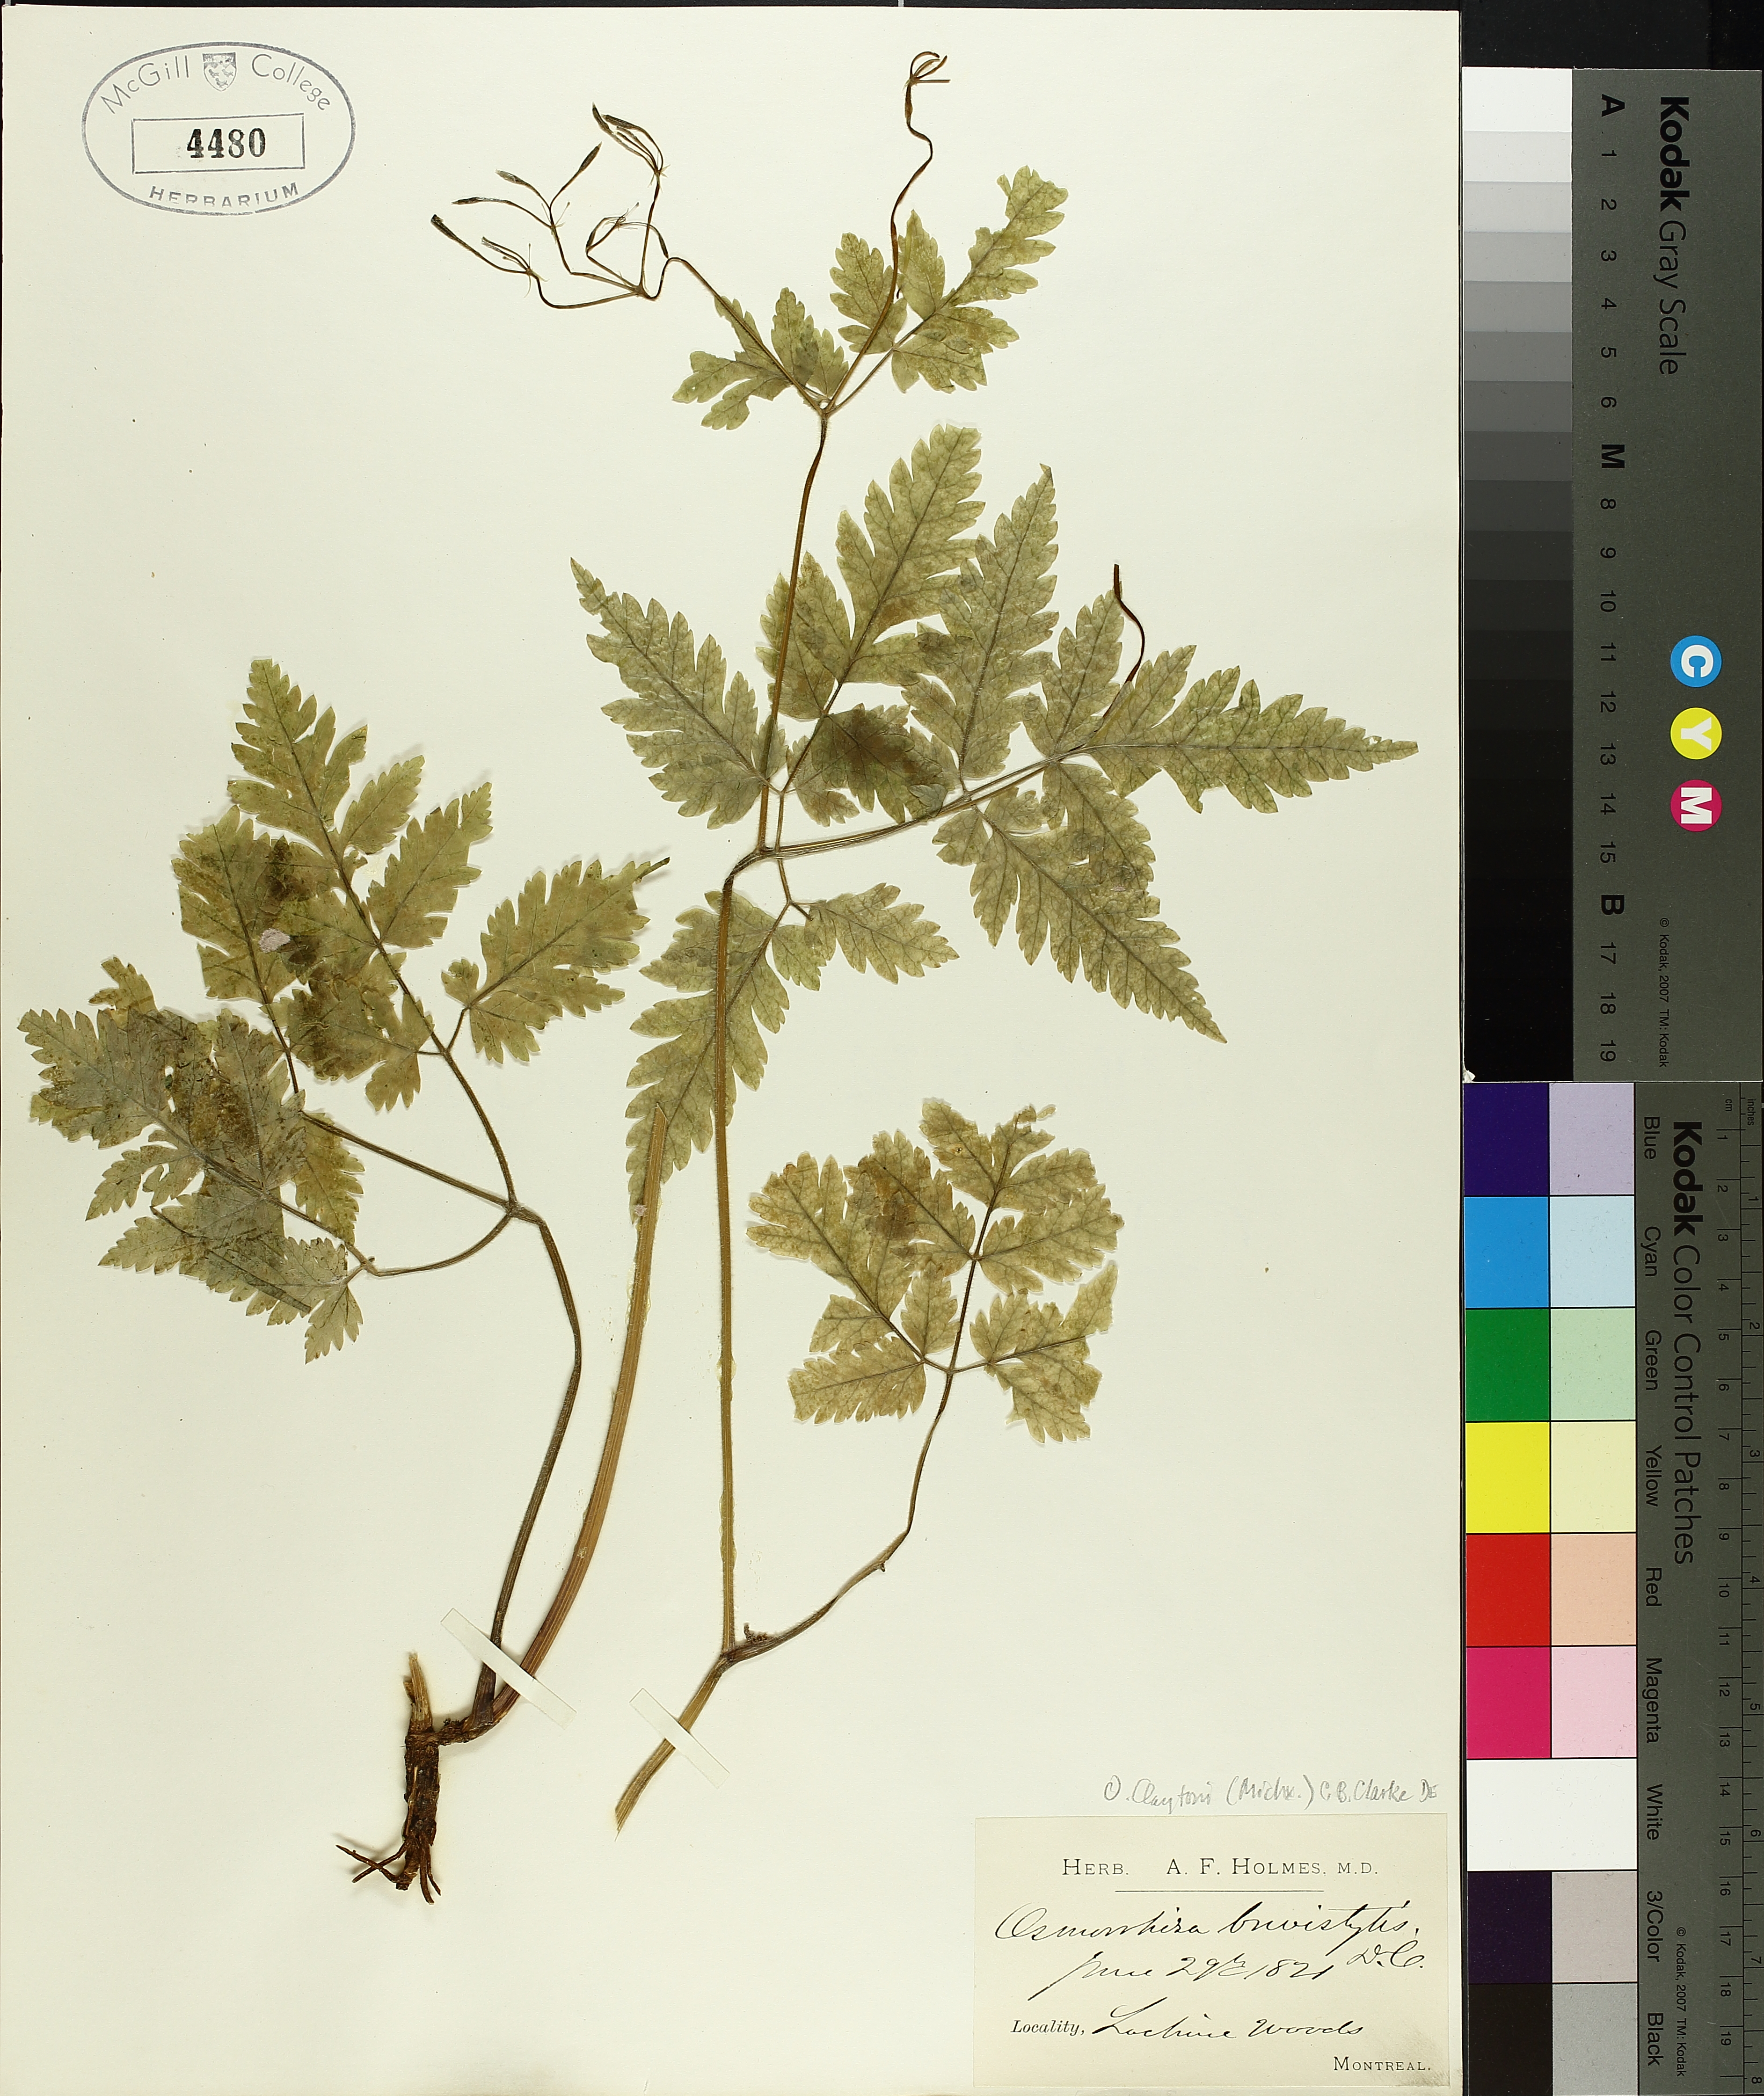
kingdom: Plantae
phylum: Tracheophyta
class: Magnoliopsida
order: Apiales
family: Apiaceae
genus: Osmorhiza
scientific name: Osmorhiza claytonii
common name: Hairy sweet cicely
